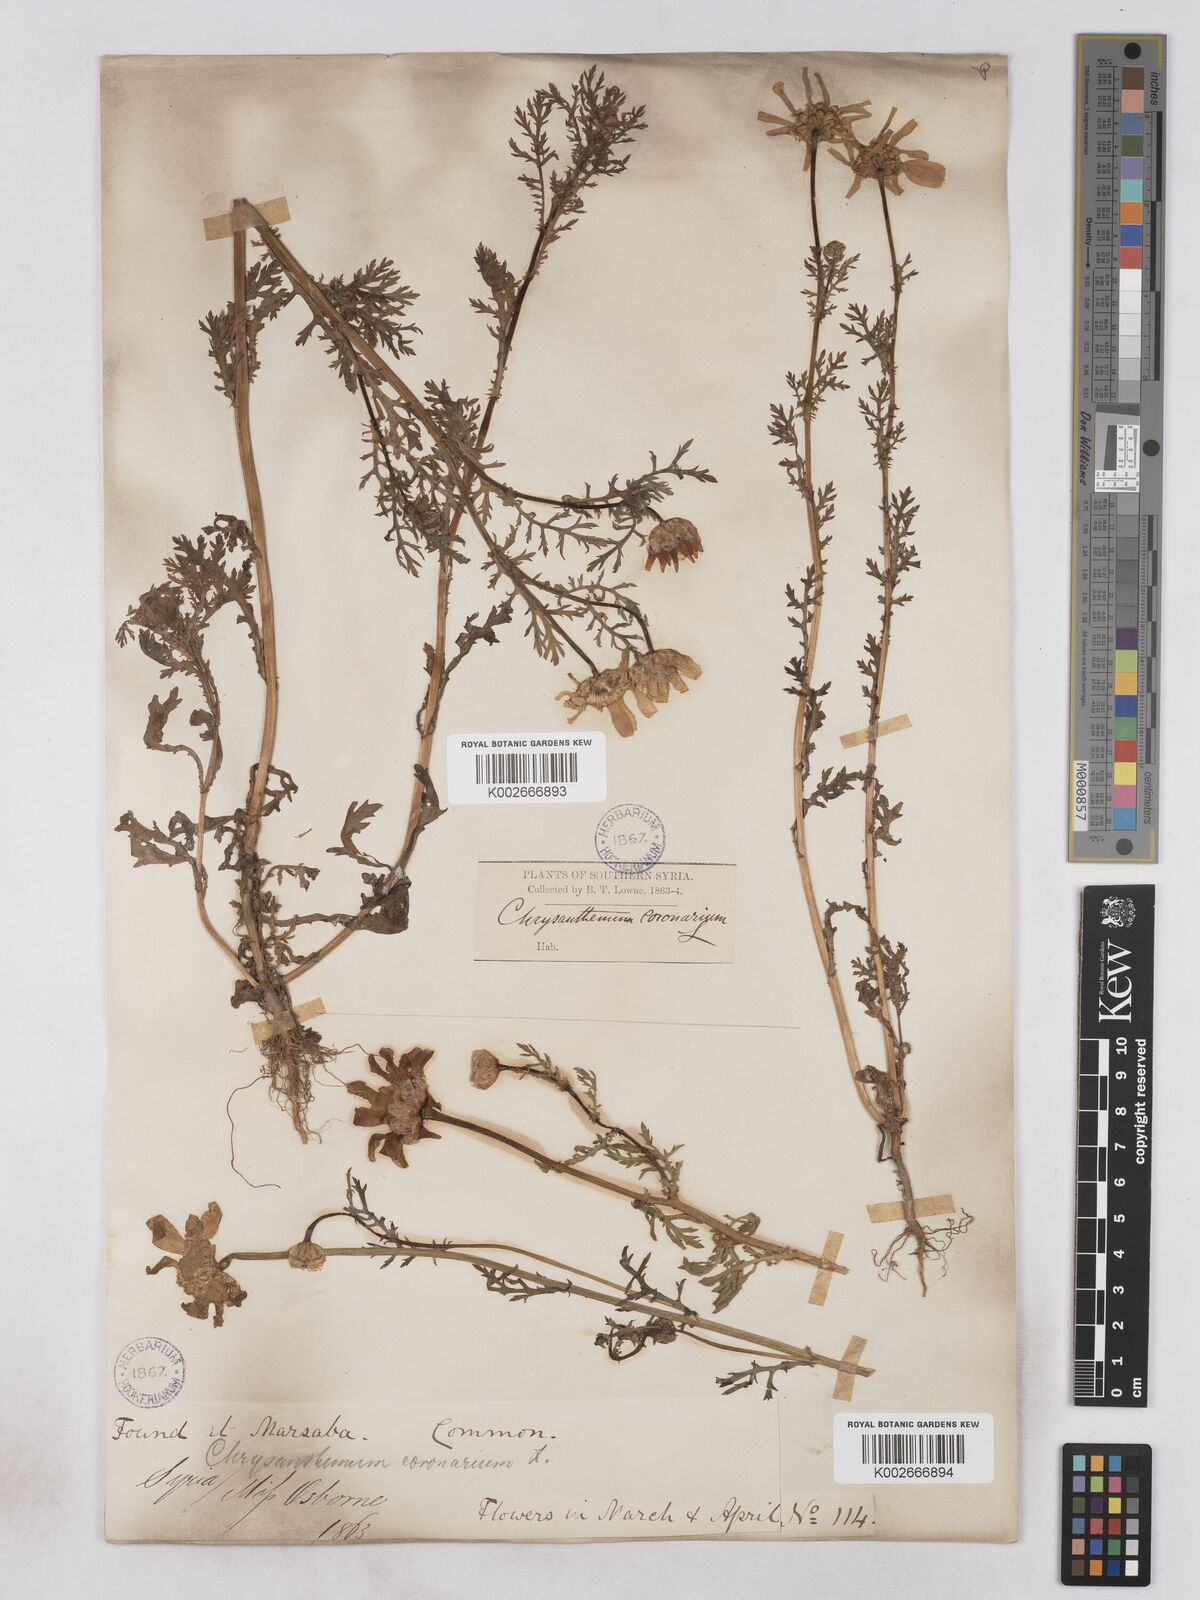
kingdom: Plantae
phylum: Tracheophyta
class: Magnoliopsida
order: Asterales
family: Asteraceae
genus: Glebionis
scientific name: Glebionis coronaria
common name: Crowndaisy
